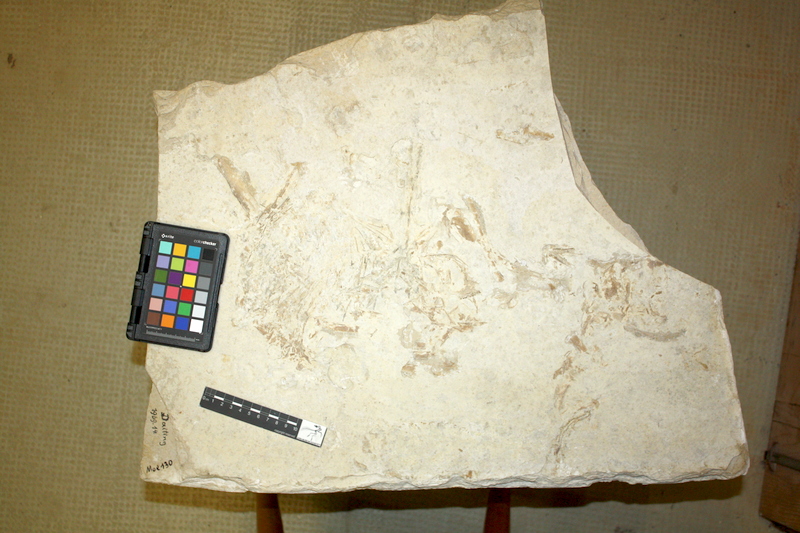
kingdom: Animalia
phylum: Chordata
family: Gyrodontidae
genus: Gyrodus
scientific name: Gyrodus
